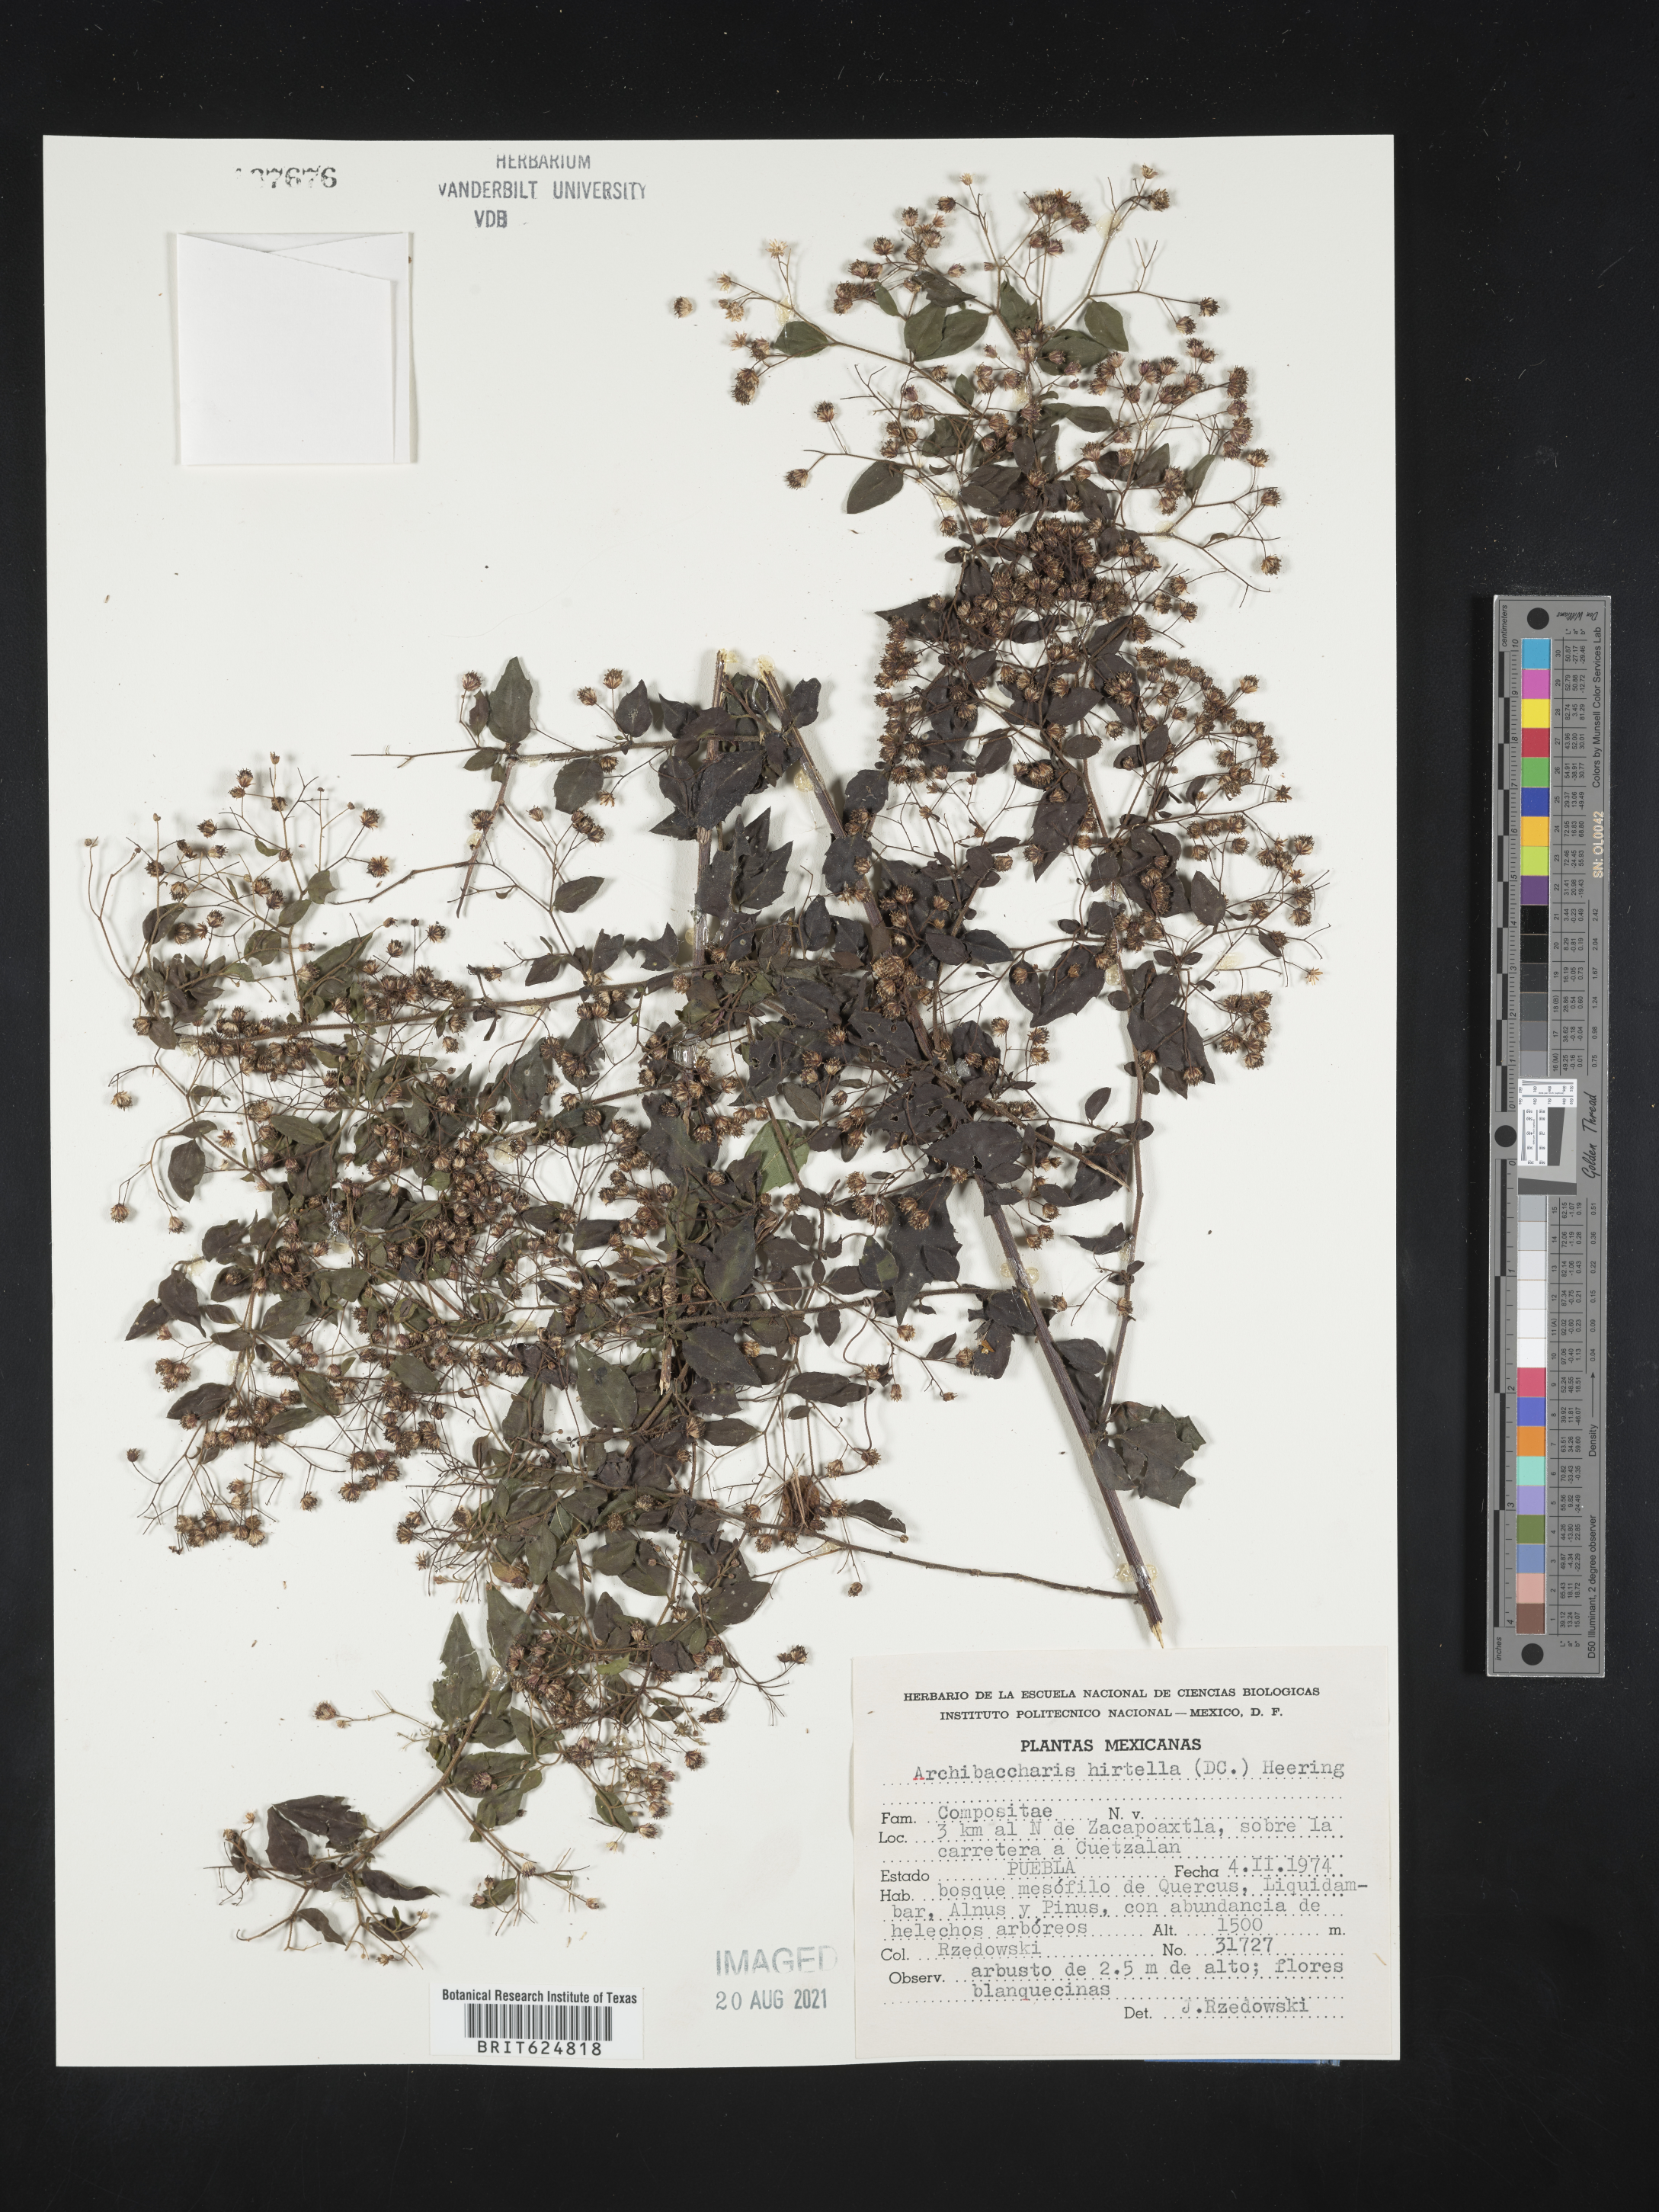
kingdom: Plantae
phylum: Tracheophyta
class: Magnoliopsida
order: Asterales
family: Asteraceae
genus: Archibaccharis
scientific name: Archibaccharis
